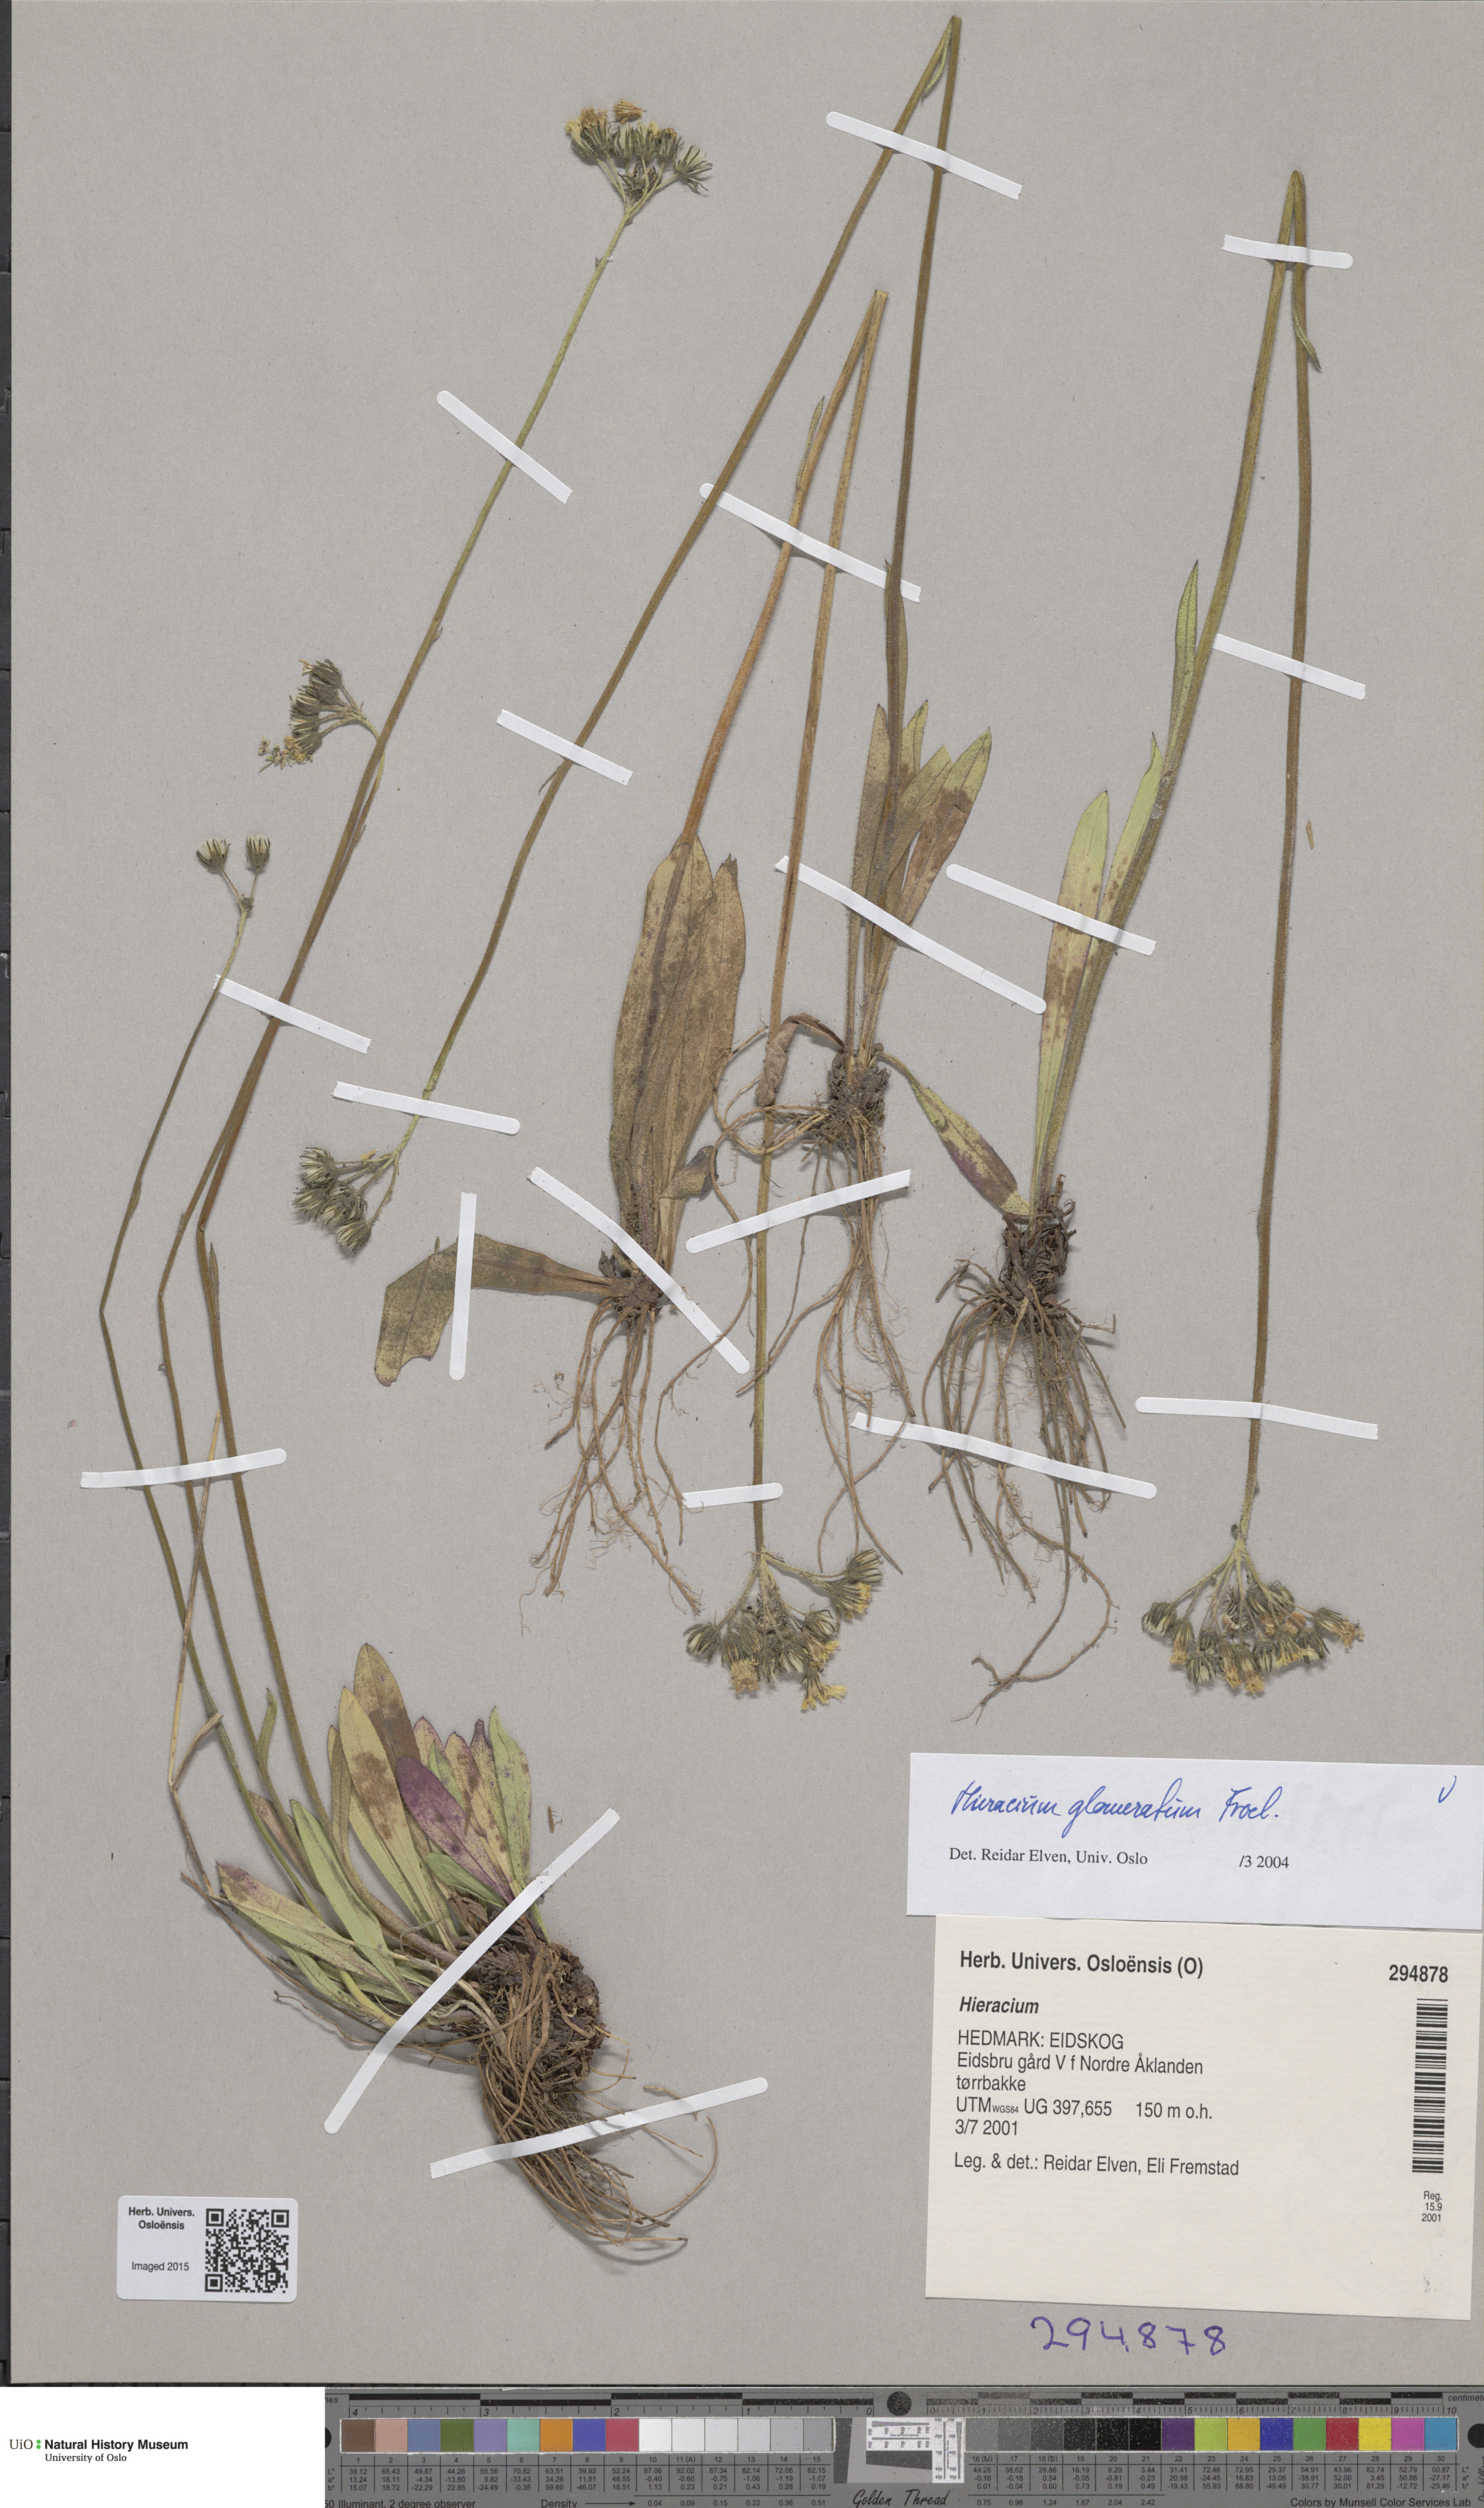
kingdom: Plantae
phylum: Tracheophyta
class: Magnoliopsida
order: Asterales
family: Asteraceae
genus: Pilosella
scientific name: Pilosella glomerata
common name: Queen devil hawkweed
